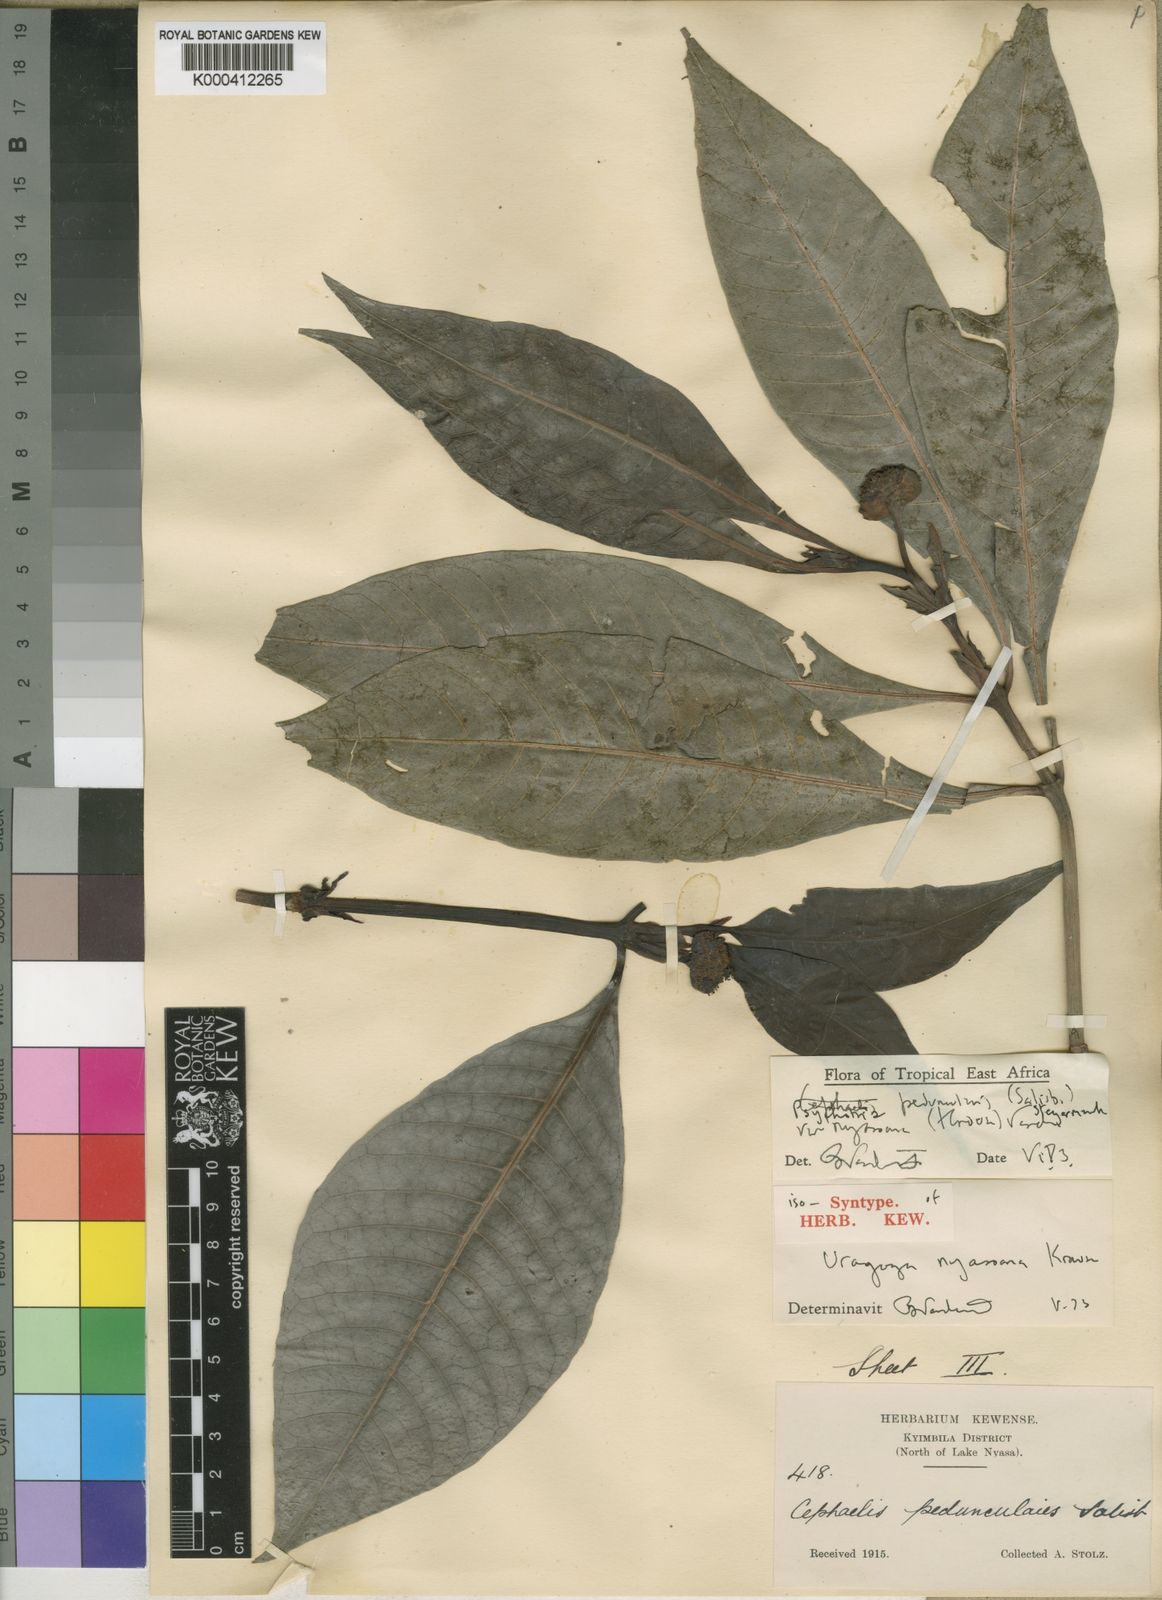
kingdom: Plantae
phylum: Tracheophyta
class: Magnoliopsida
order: Gentianales
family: Rubiaceae
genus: Psychotria
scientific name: Psychotria peduncularis
